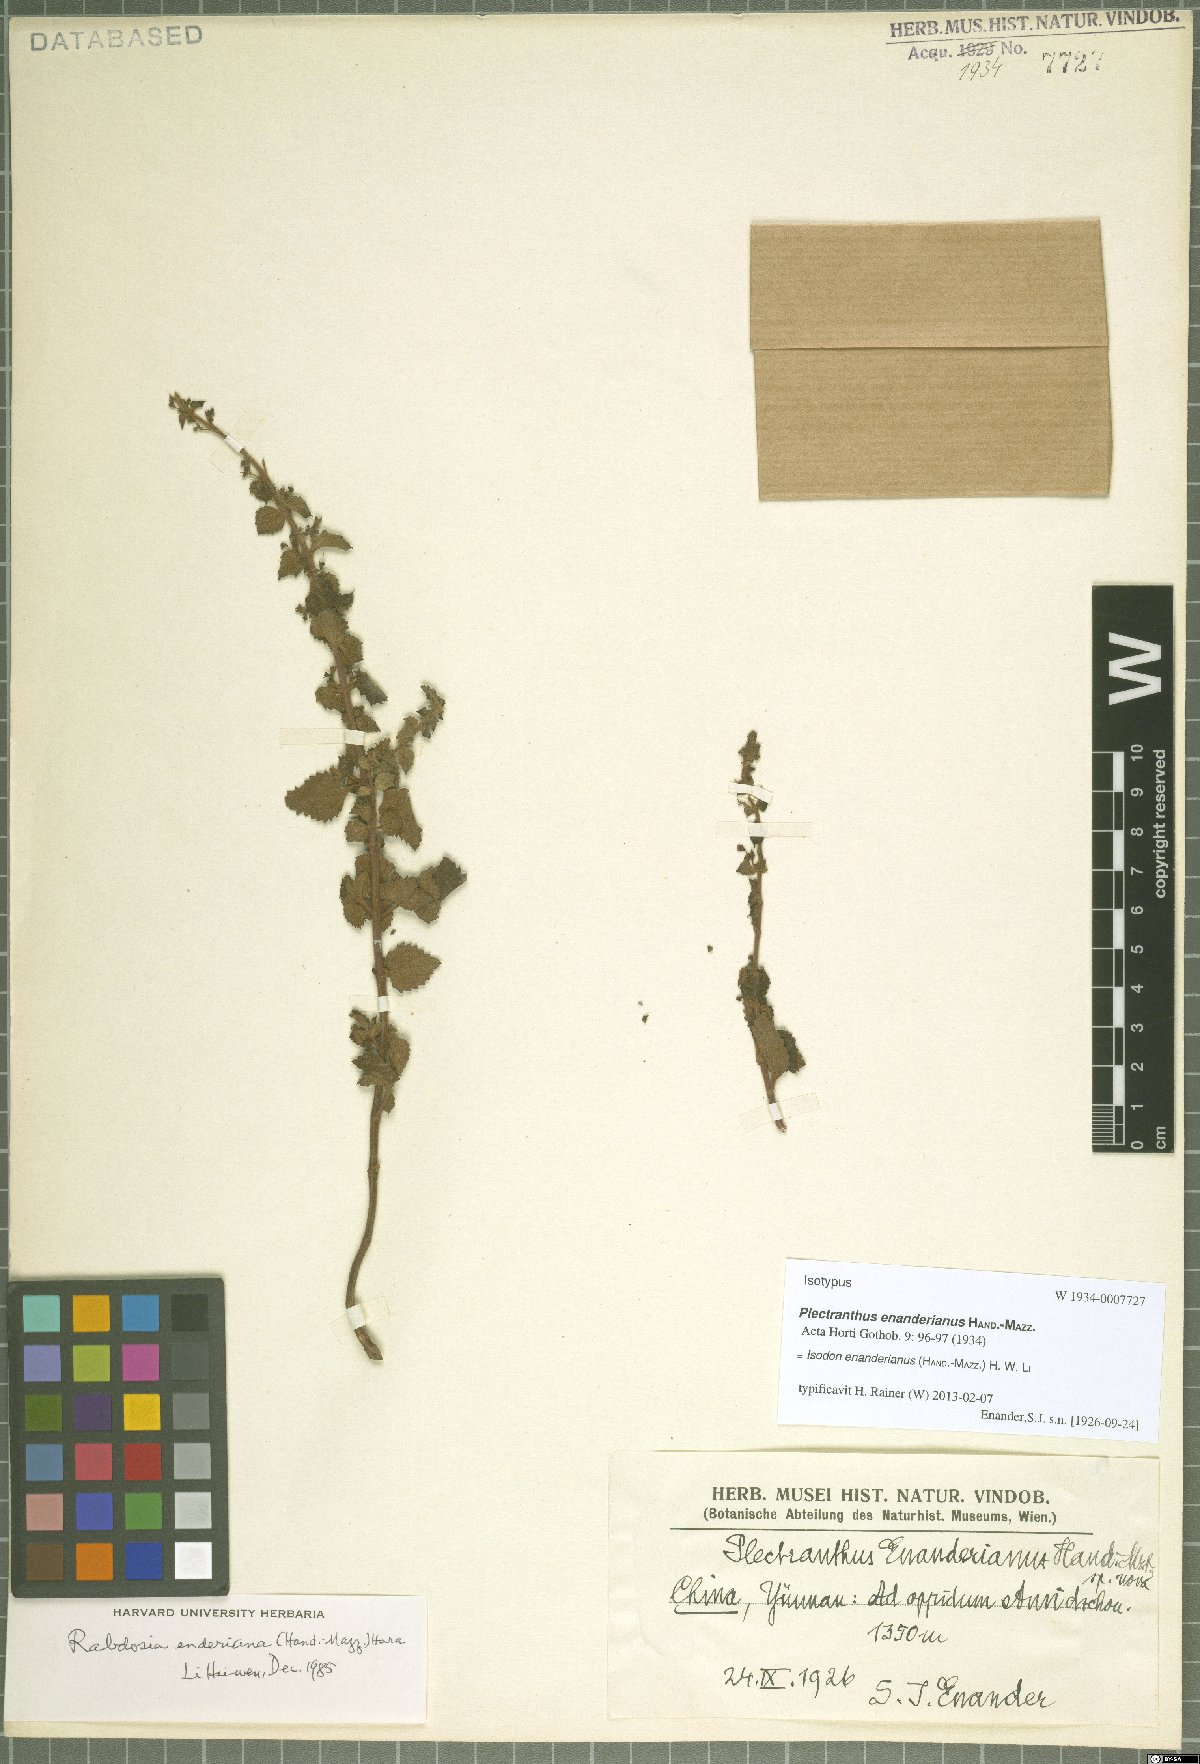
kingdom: Plantae
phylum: Tracheophyta
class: Magnoliopsida
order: Lamiales
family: Lamiaceae
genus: Isodon
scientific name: Isodon enanderianus
